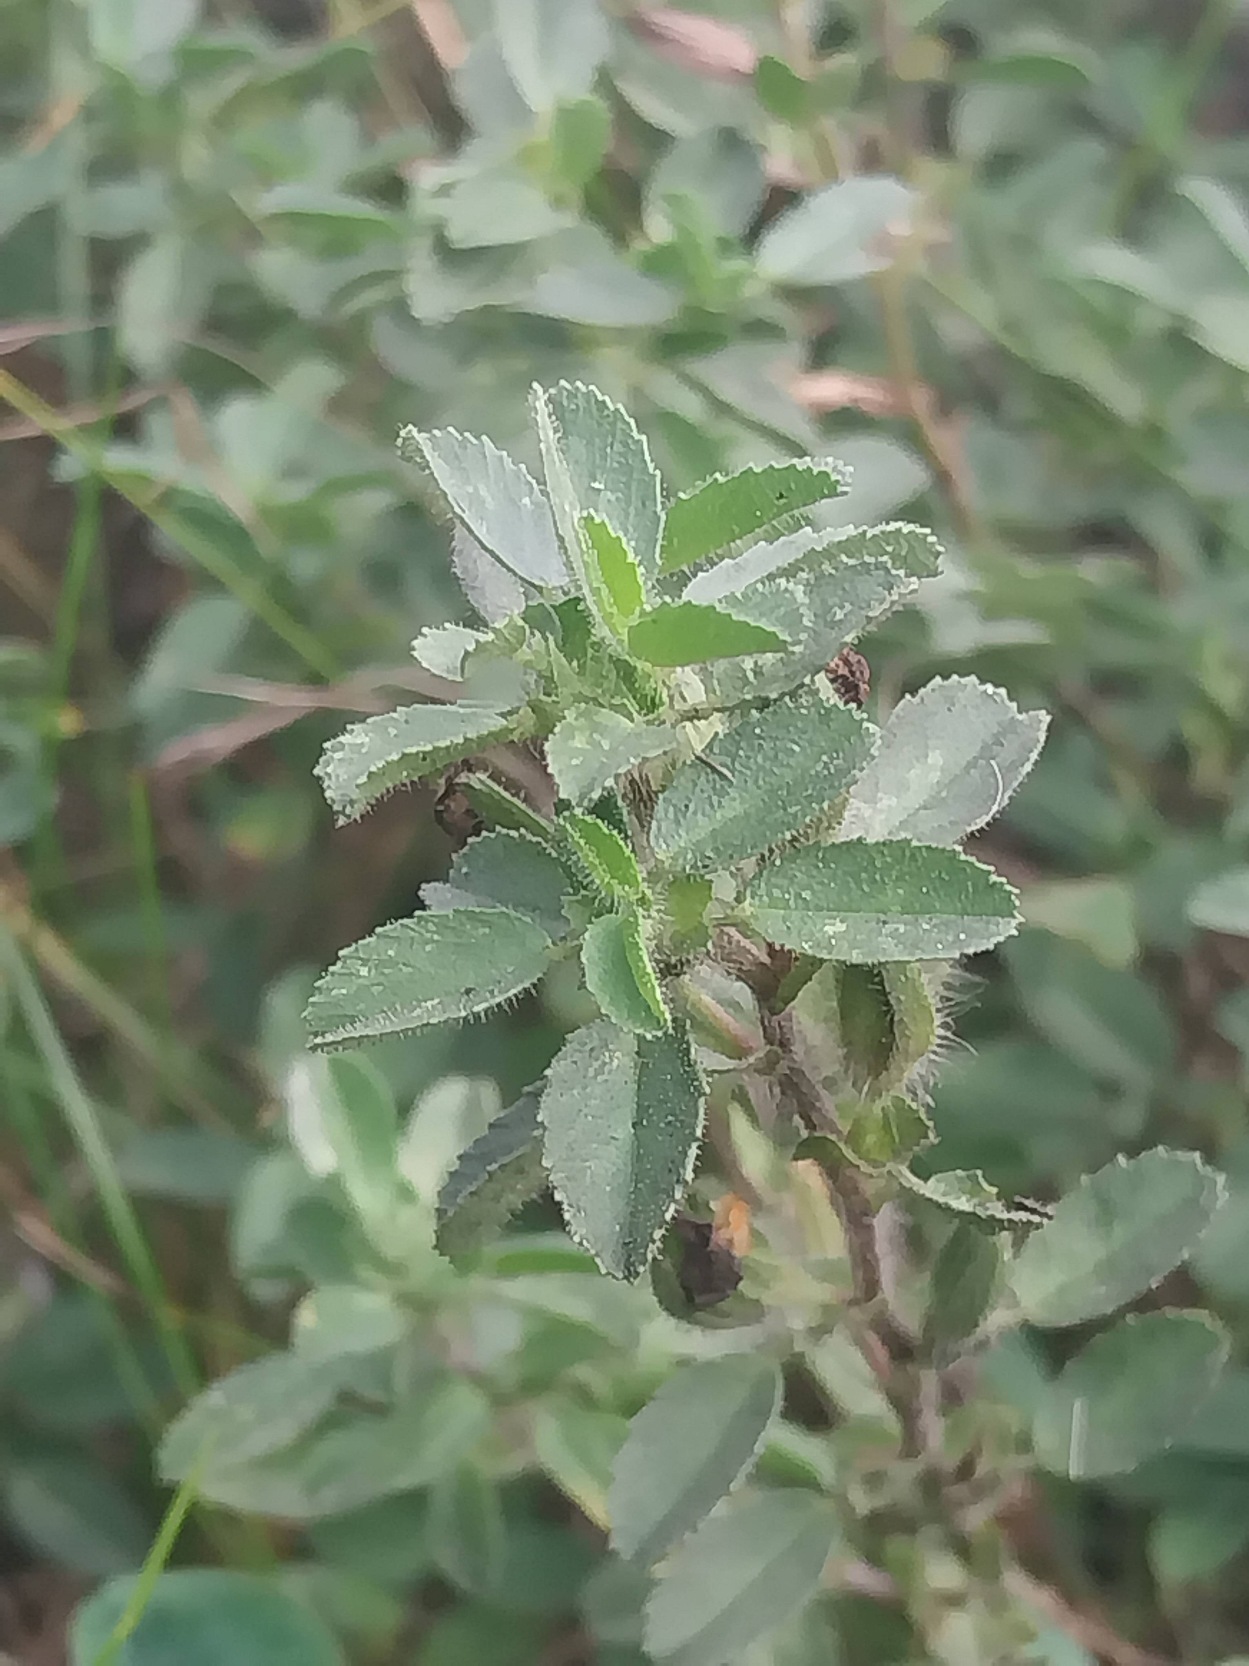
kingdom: Plantae
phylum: Tracheophyta
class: Magnoliopsida
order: Fabales
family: Fabaceae
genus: Ononis
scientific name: Ononis spinosa
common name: Mark-krageklo
